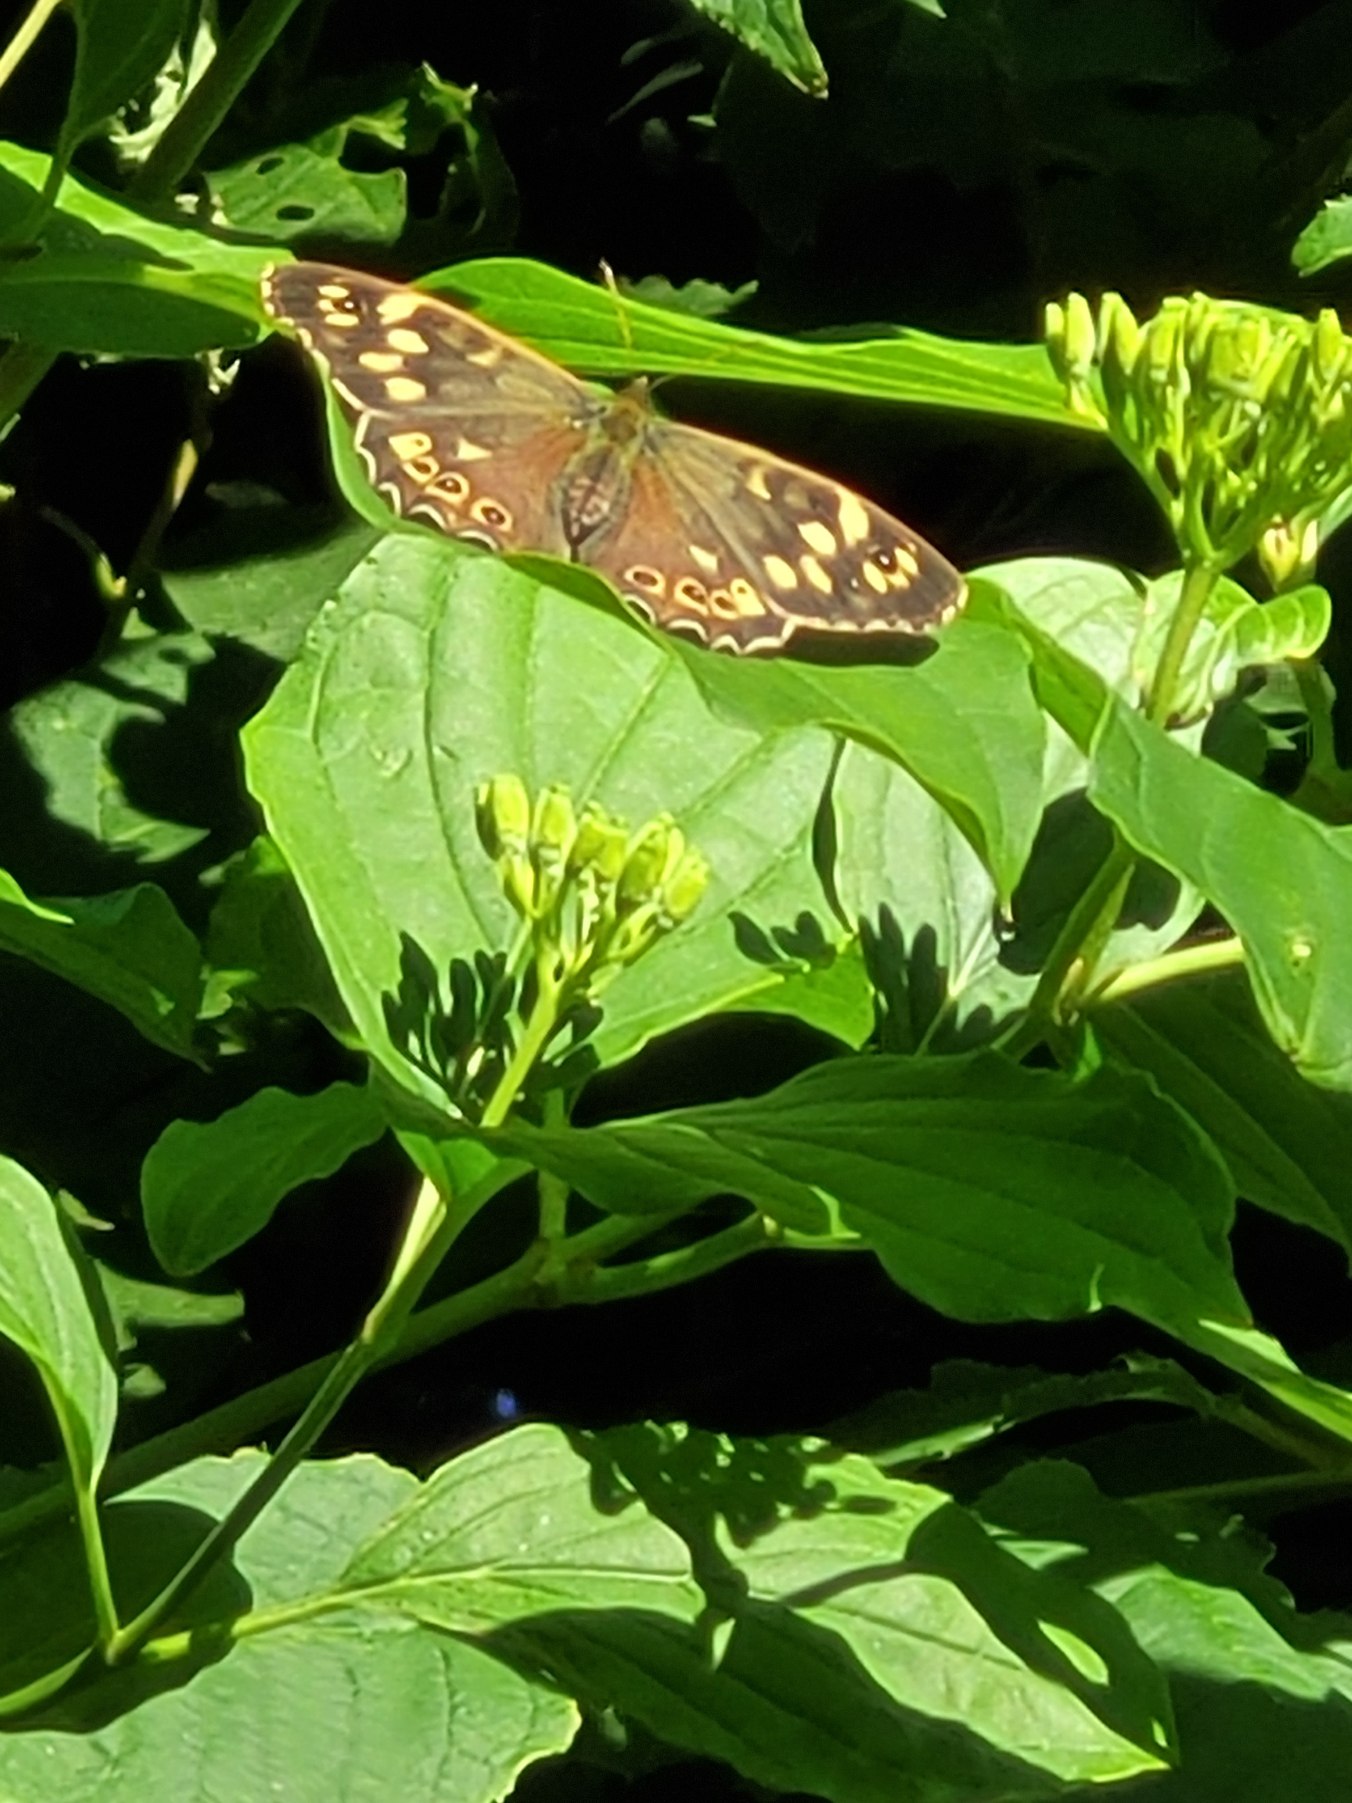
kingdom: Animalia
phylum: Arthropoda
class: Insecta
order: Lepidoptera
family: Nymphalidae
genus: Pararge
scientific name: Pararge aegeria
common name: Skovrandøje
